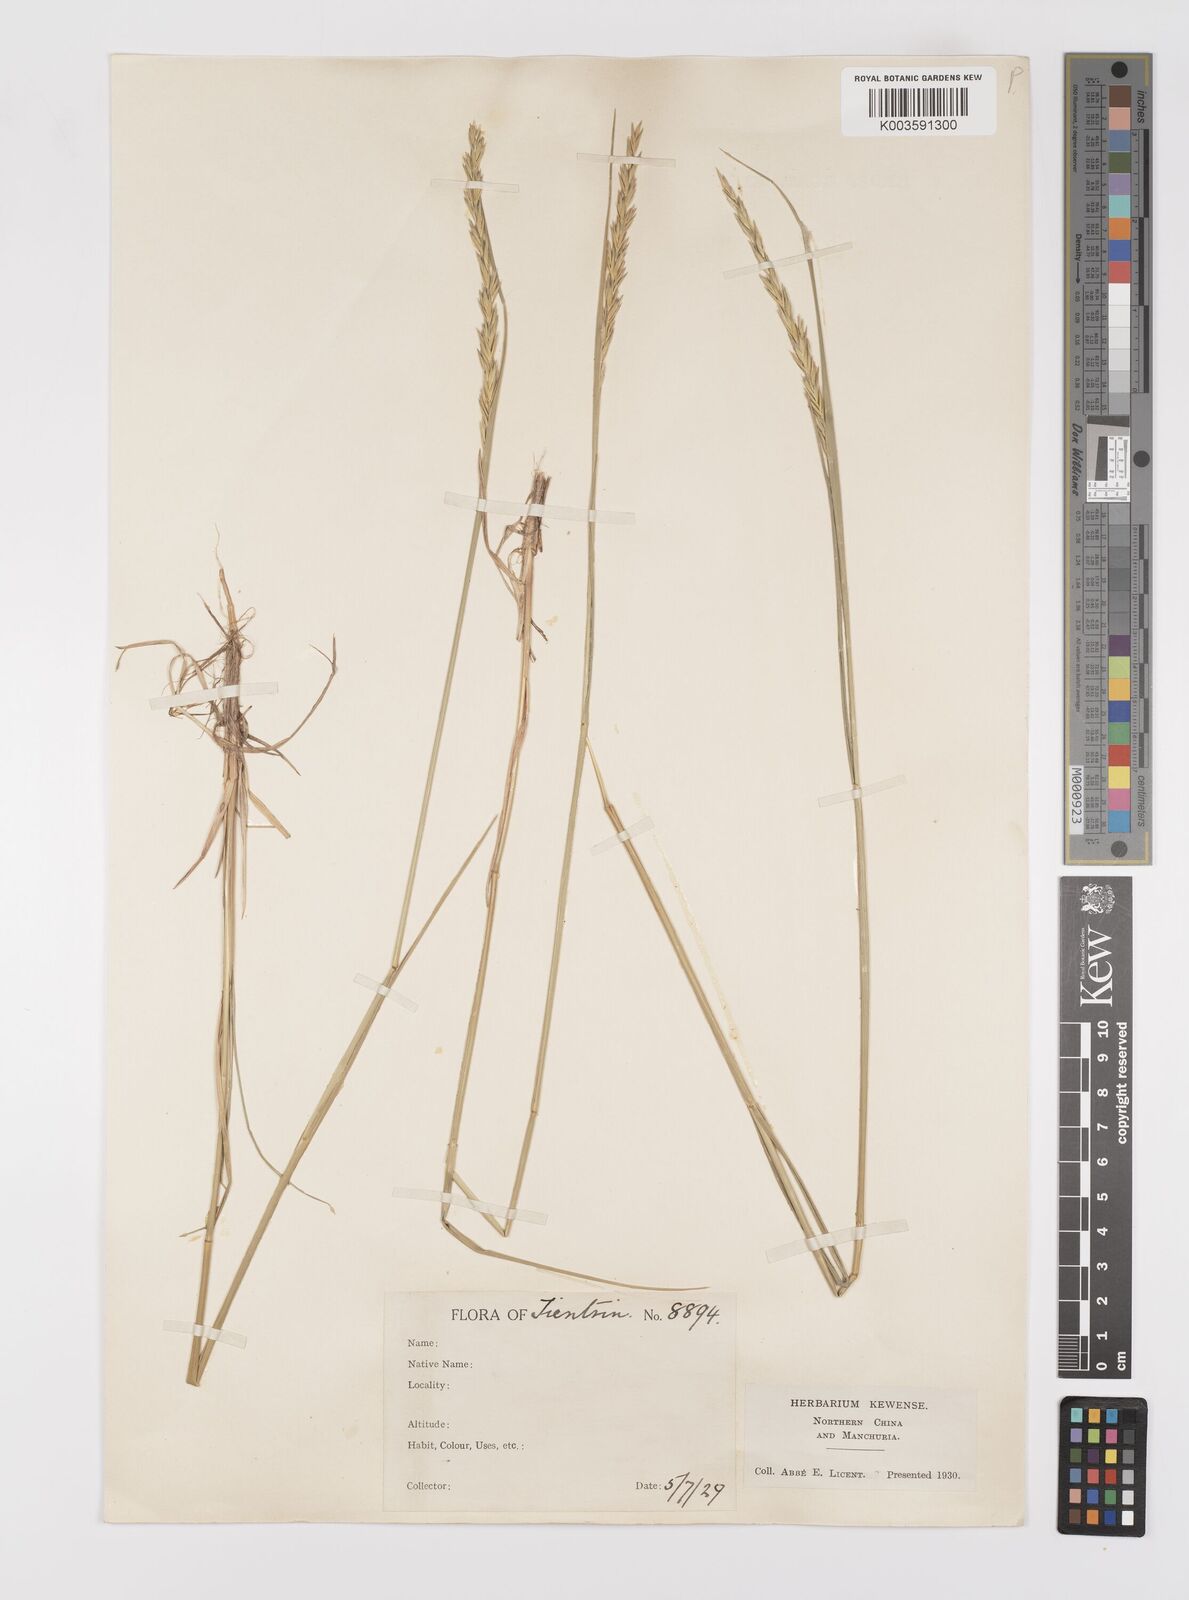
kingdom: Plantae
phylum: Tracheophyta
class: Liliopsida
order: Poales
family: Poaceae
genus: Leymus
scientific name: Leymus
